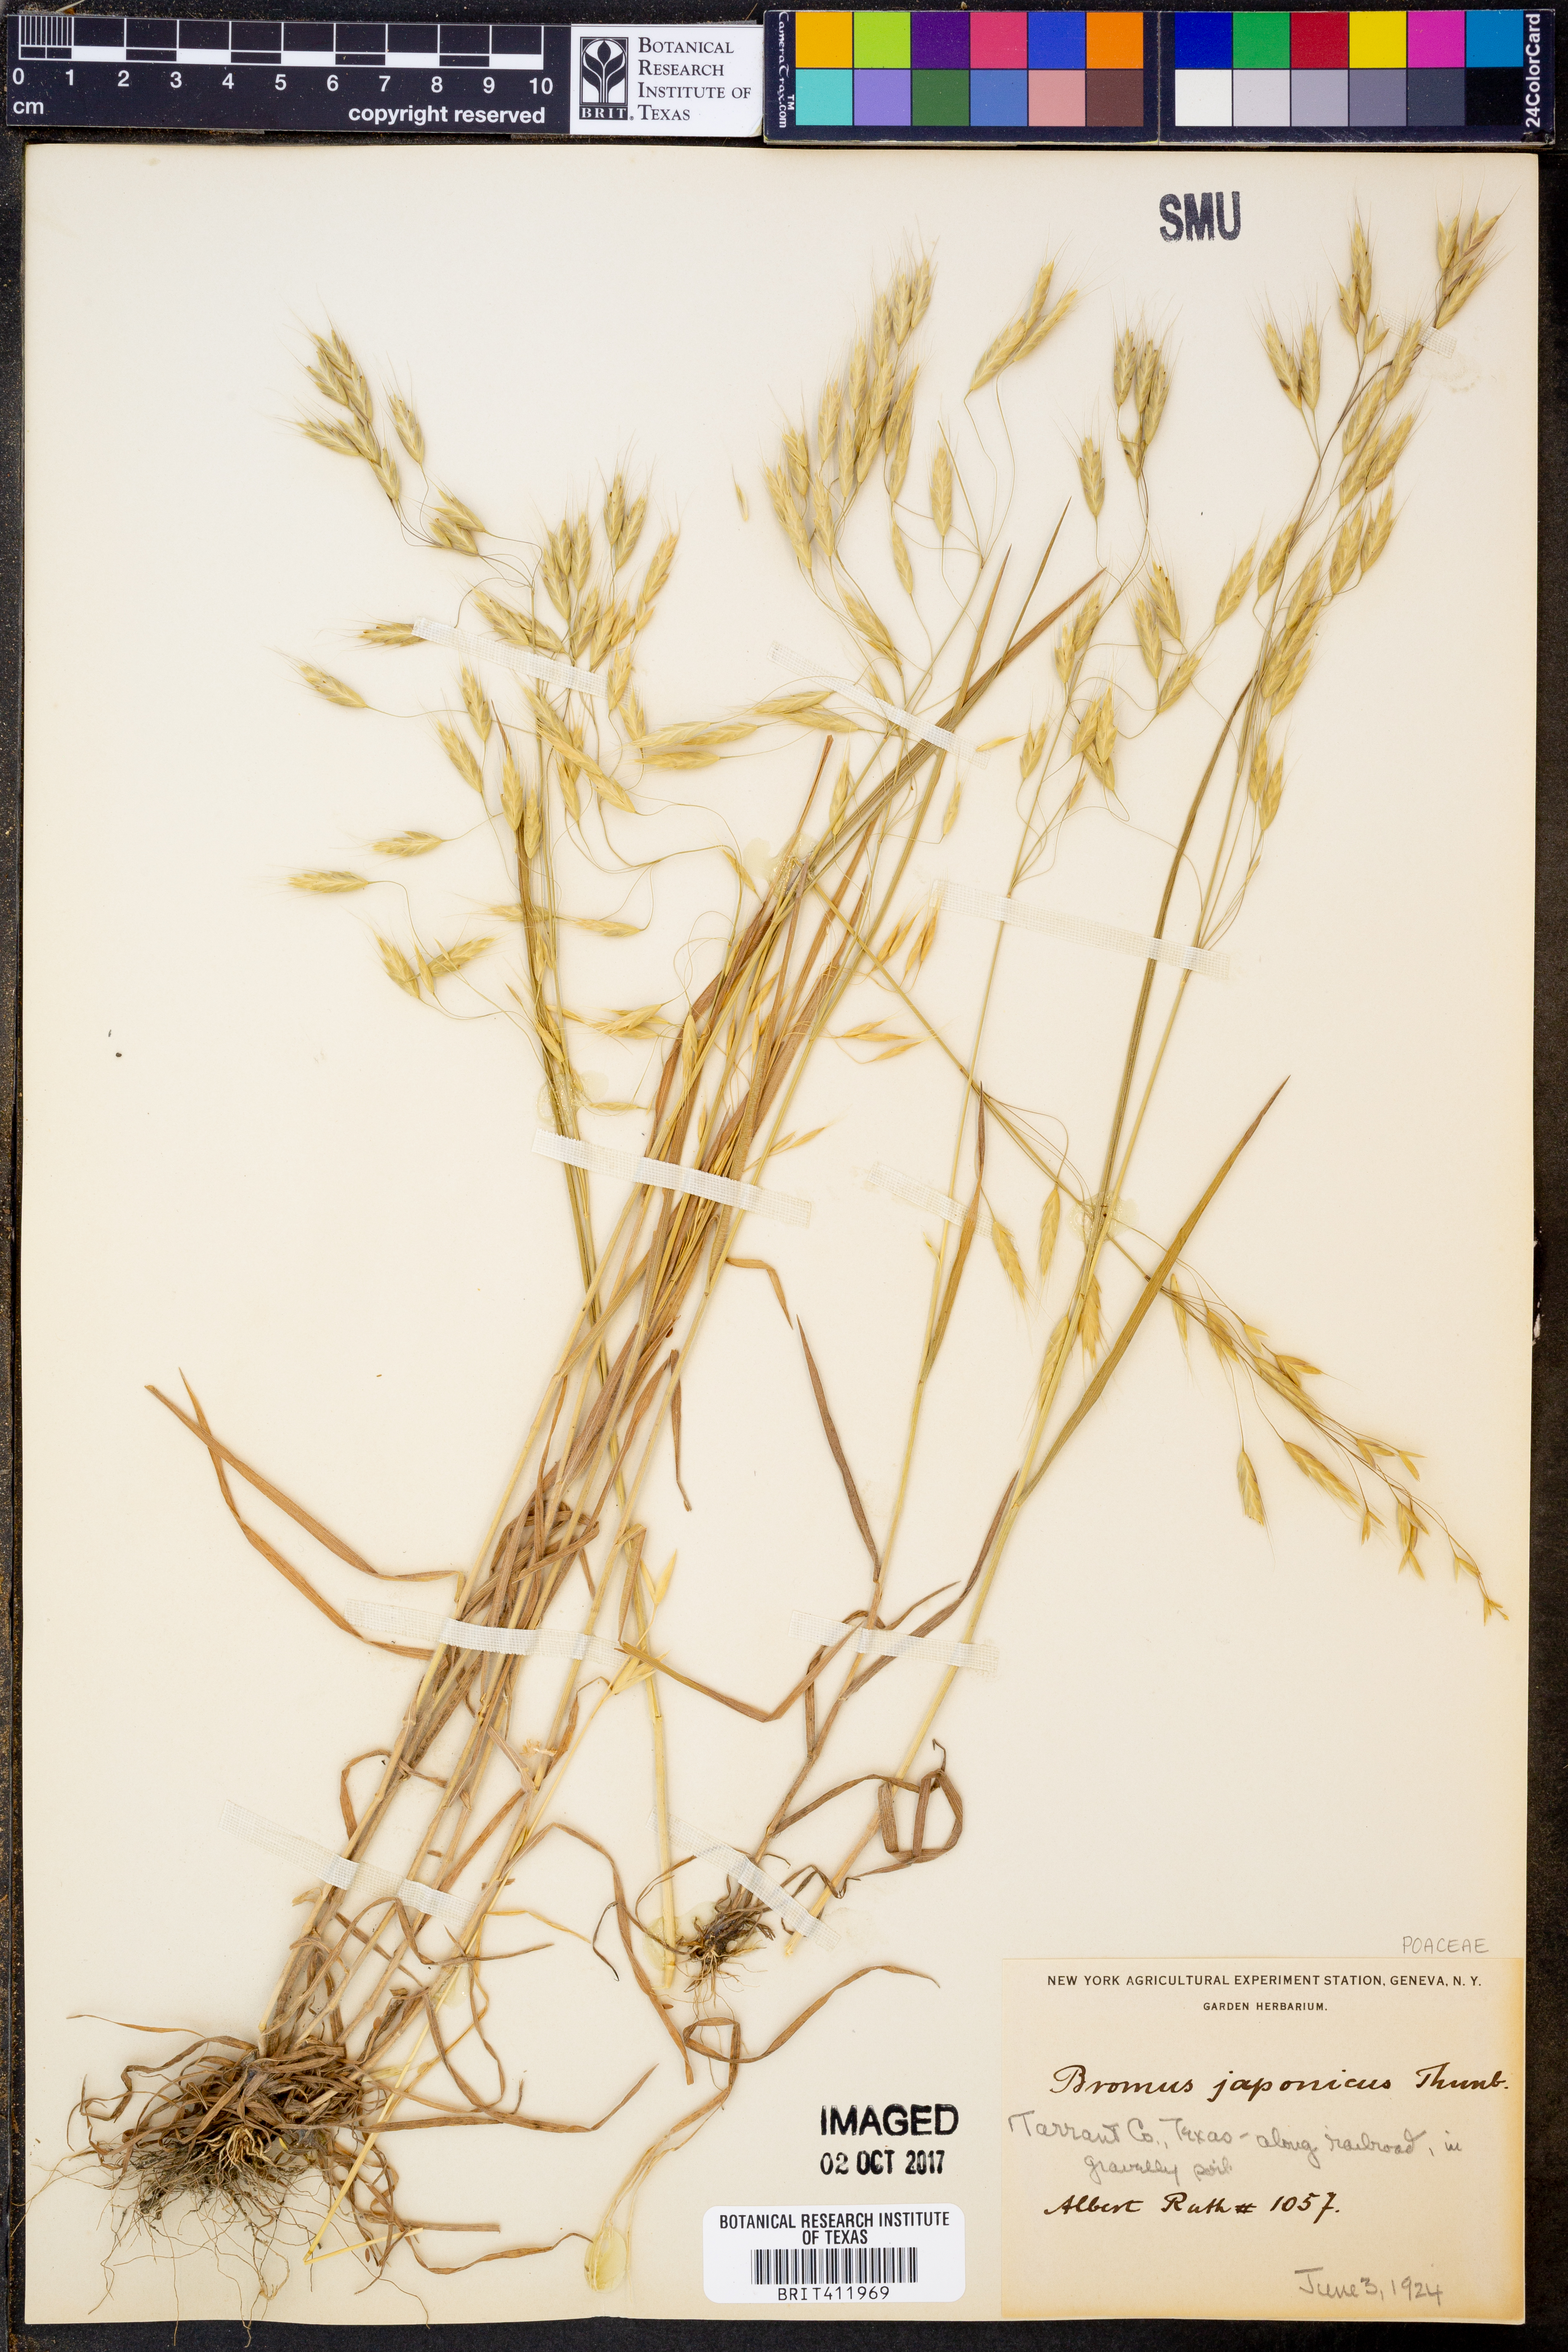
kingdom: Plantae
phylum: Tracheophyta
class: Liliopsida
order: Poales
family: Poaceae
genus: Bromus
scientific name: Bromus japonicus
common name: Japanese brome
